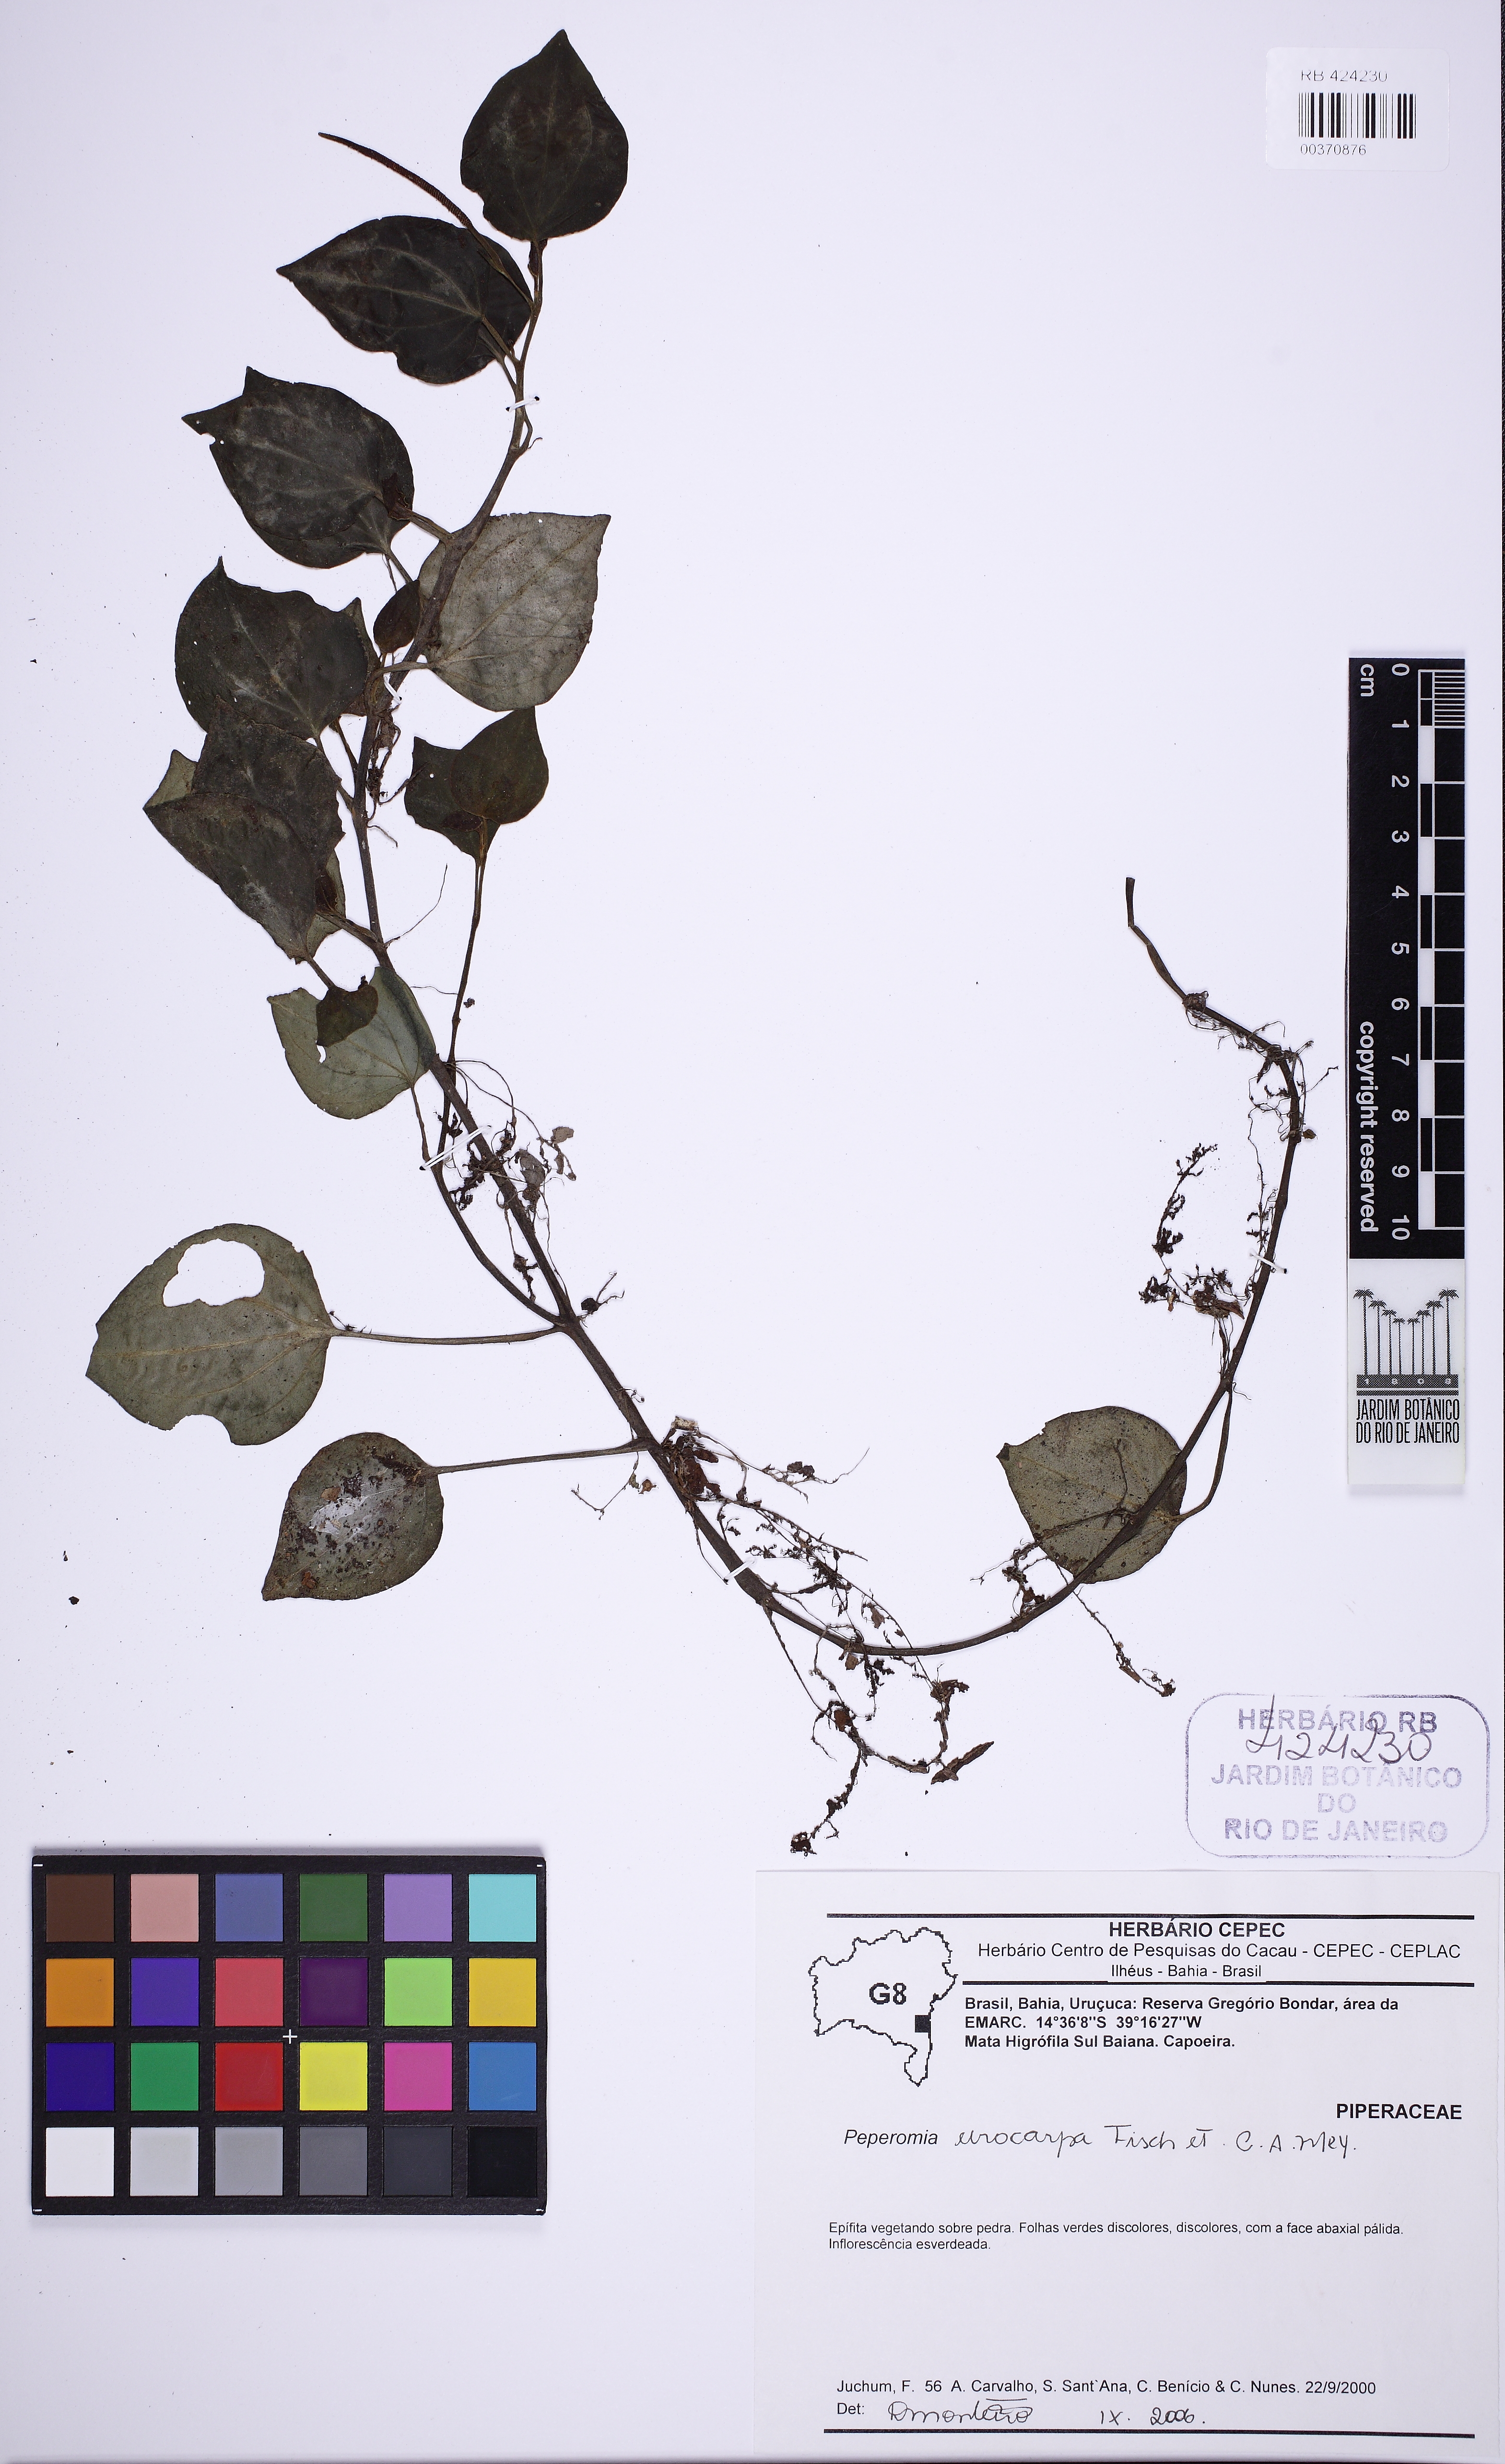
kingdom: Plantae
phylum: Tracheophyta
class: Magnoliopsida
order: Piperales
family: Piperaceae
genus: Peperomia
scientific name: Peperomia urocarpa
